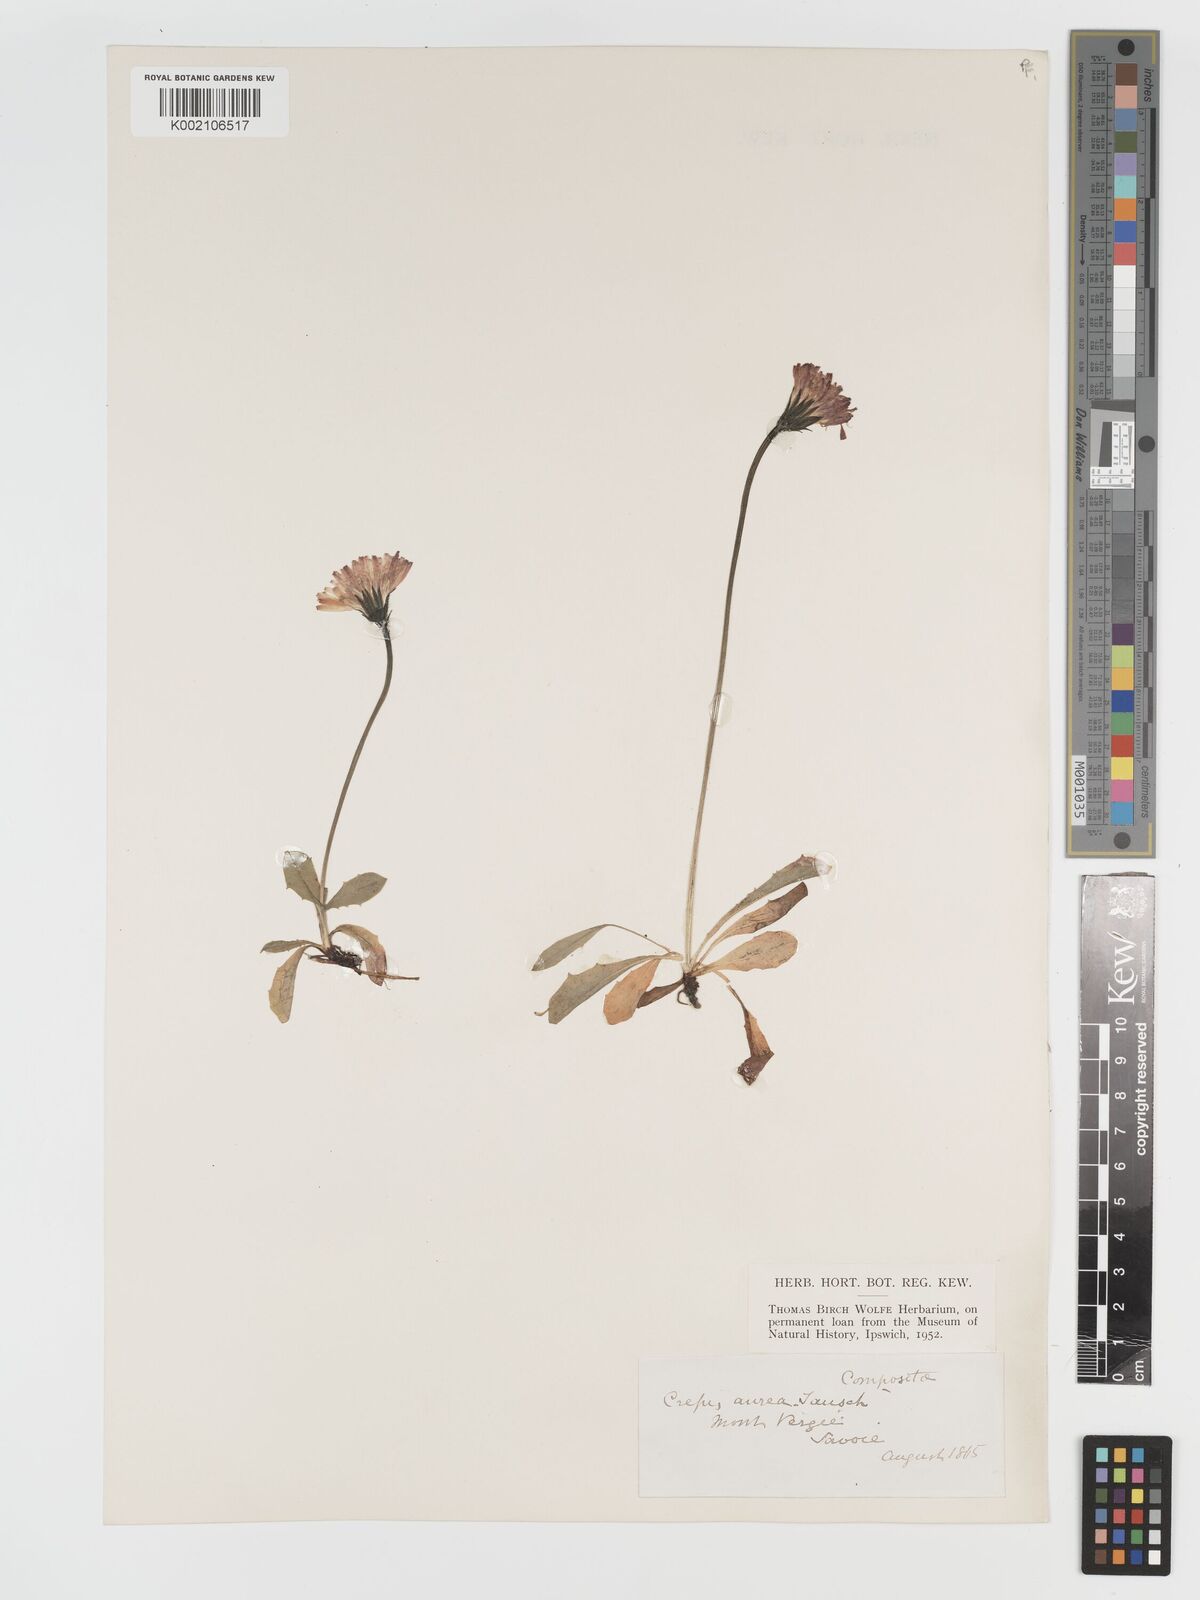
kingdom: Plantae
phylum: Tracheophyta
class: Magnoliopsida
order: Asterales
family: Asteraceae
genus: Crepis
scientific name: Crepis aurea
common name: Golden hawk's-beard
